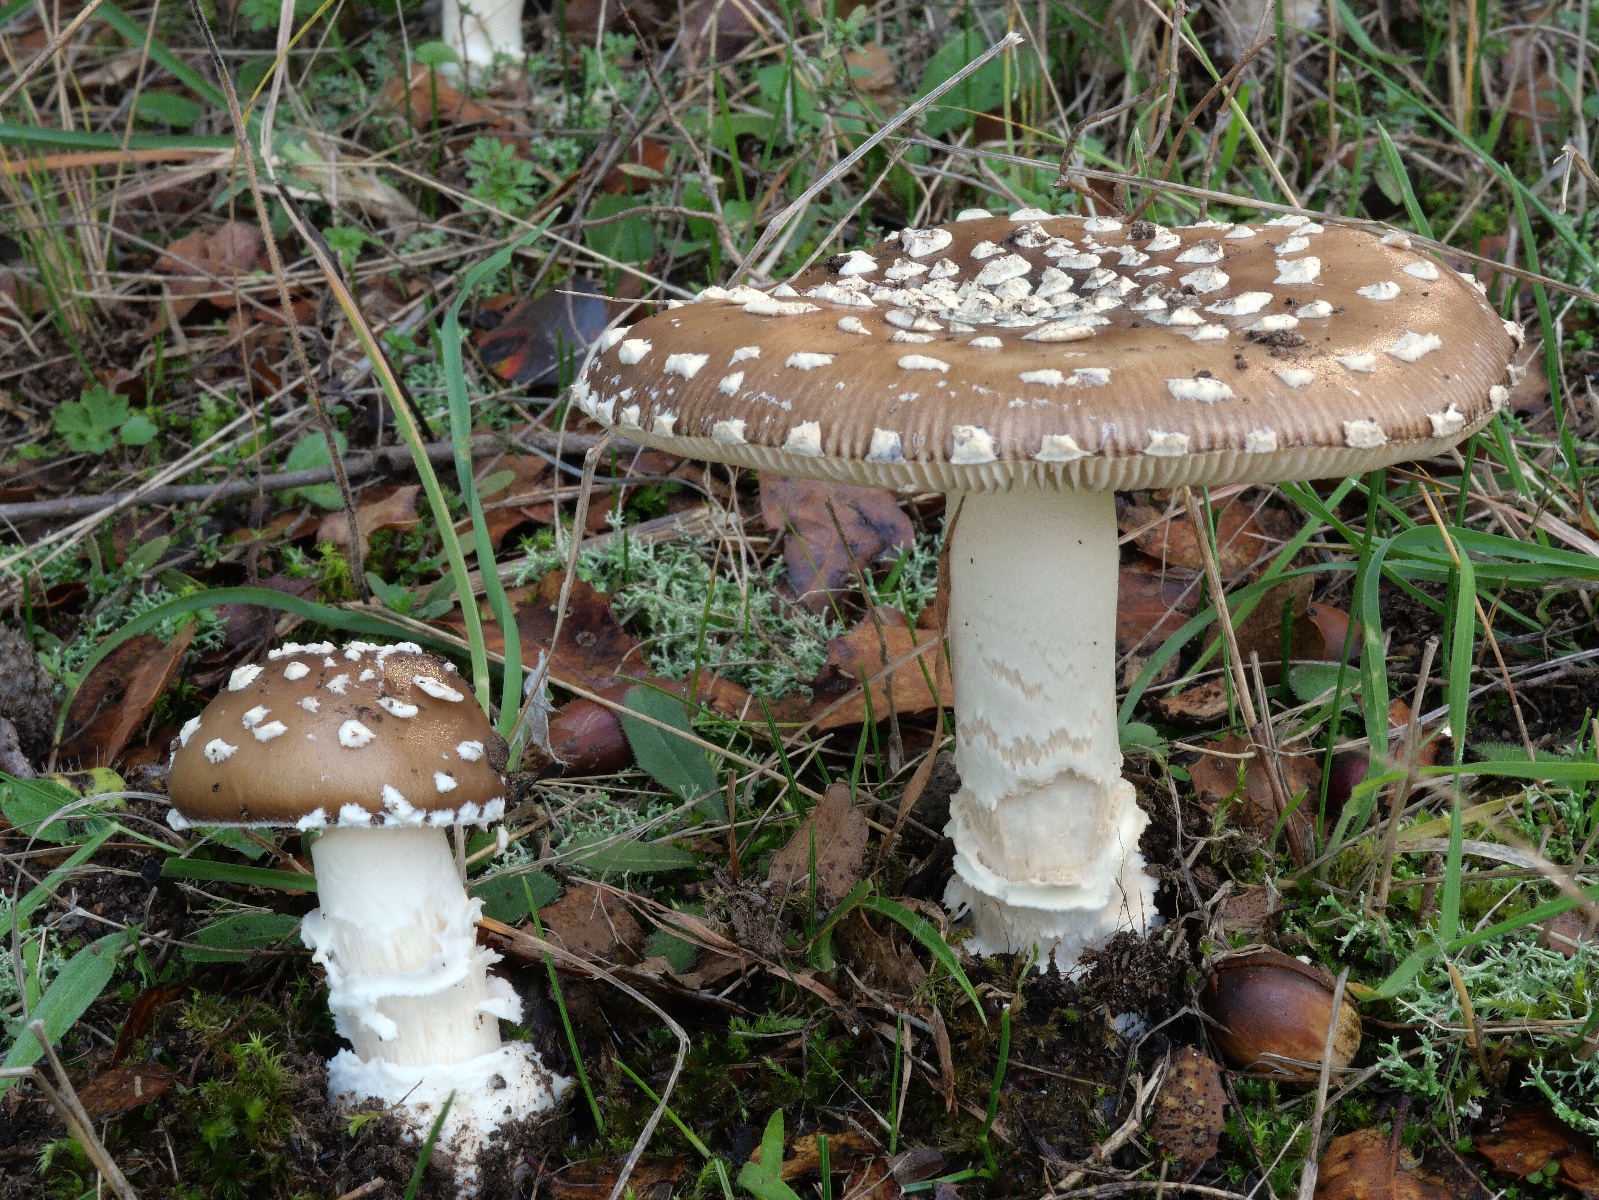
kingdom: Fungi
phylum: Basidiomycota
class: Agaricomycetes
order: Agaricales
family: Amanitaceae
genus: Amanita
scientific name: Amanita pantherina
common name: panter-fluesvamp
